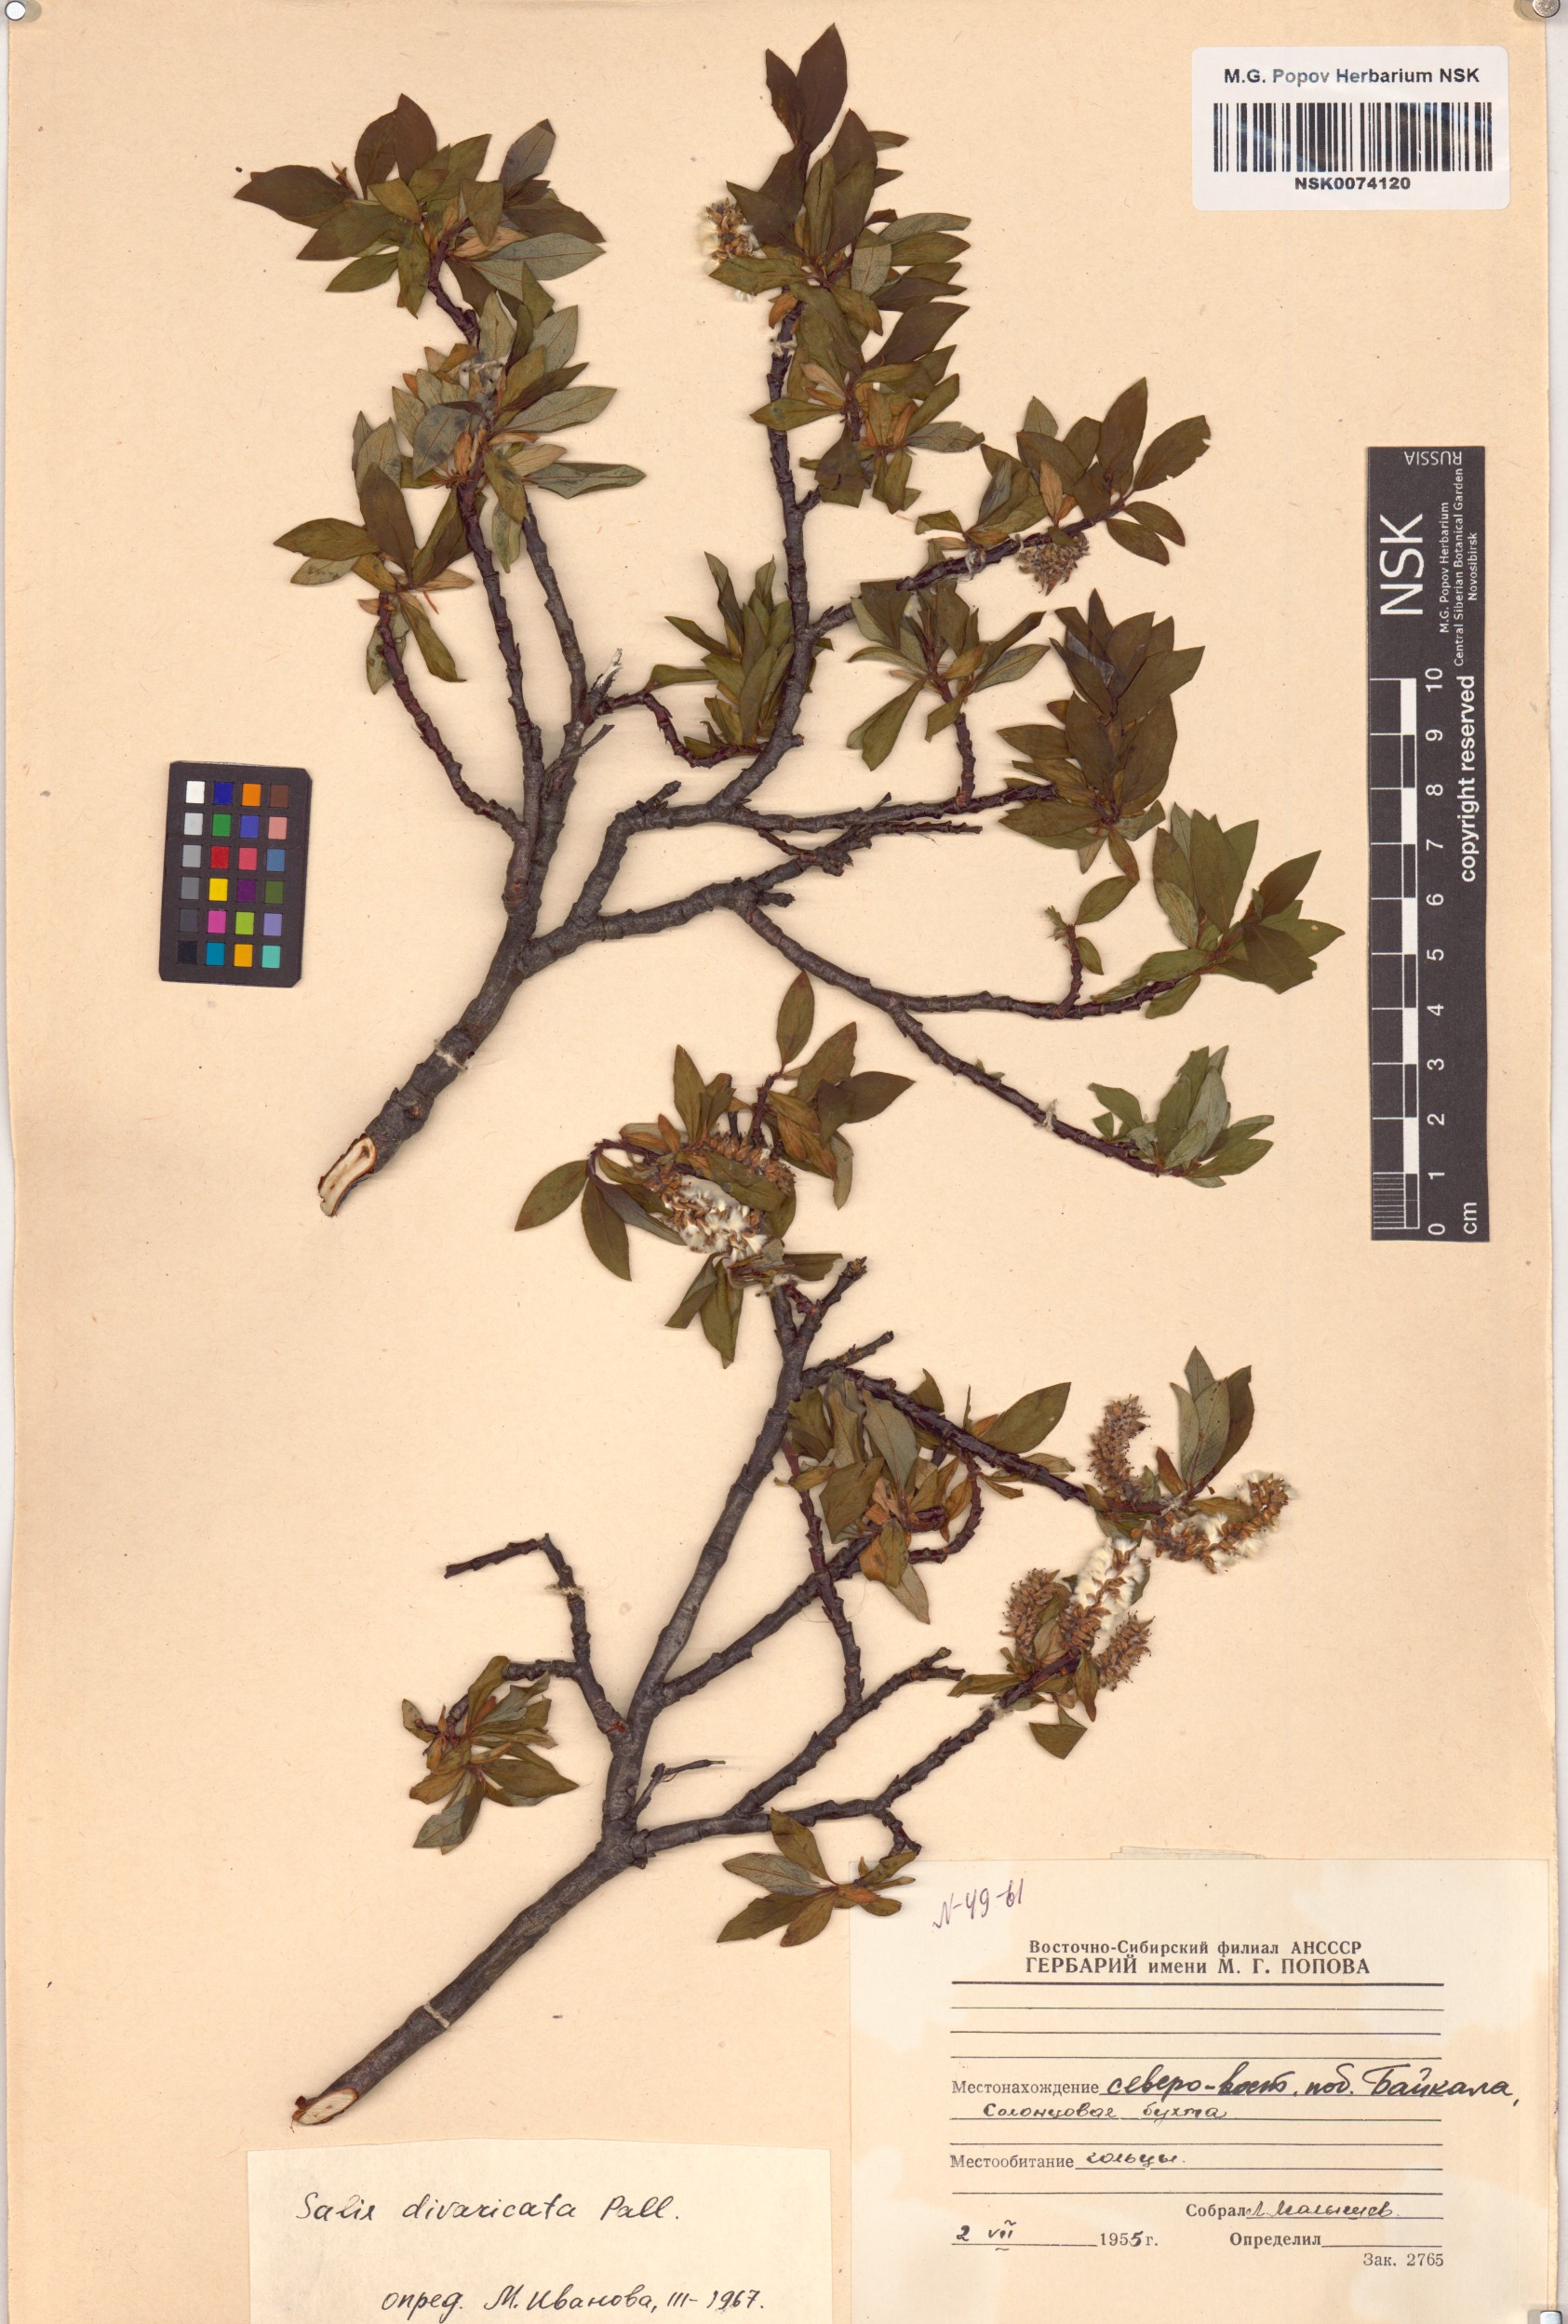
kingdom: Plantae
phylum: Tracheophyta
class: Magnoliopsida
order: Malpighiales
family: Salicaceae
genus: Salix
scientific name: Salix divaricata
